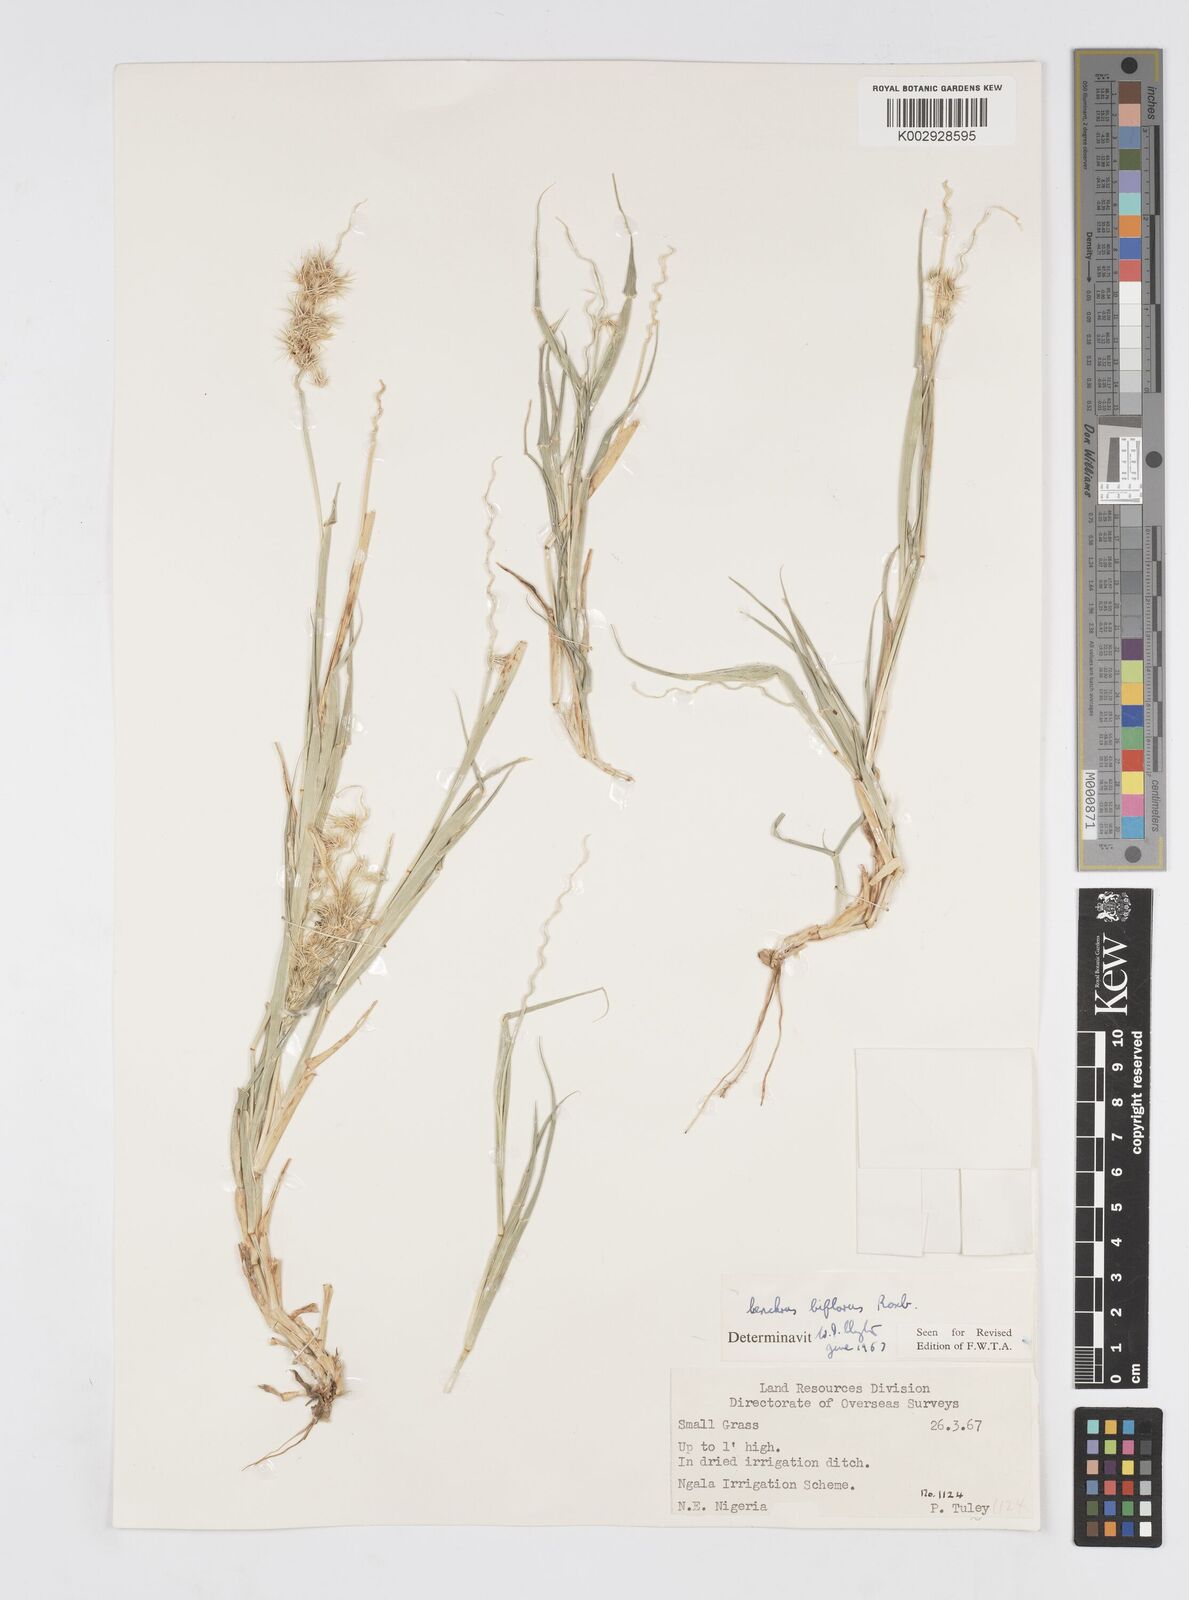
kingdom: Plantae
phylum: Tracheophyta
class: Liliopsida
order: Poales
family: Poaceae
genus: Cenchrus
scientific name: Cenchrus biflorus
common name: Indian sandbur
